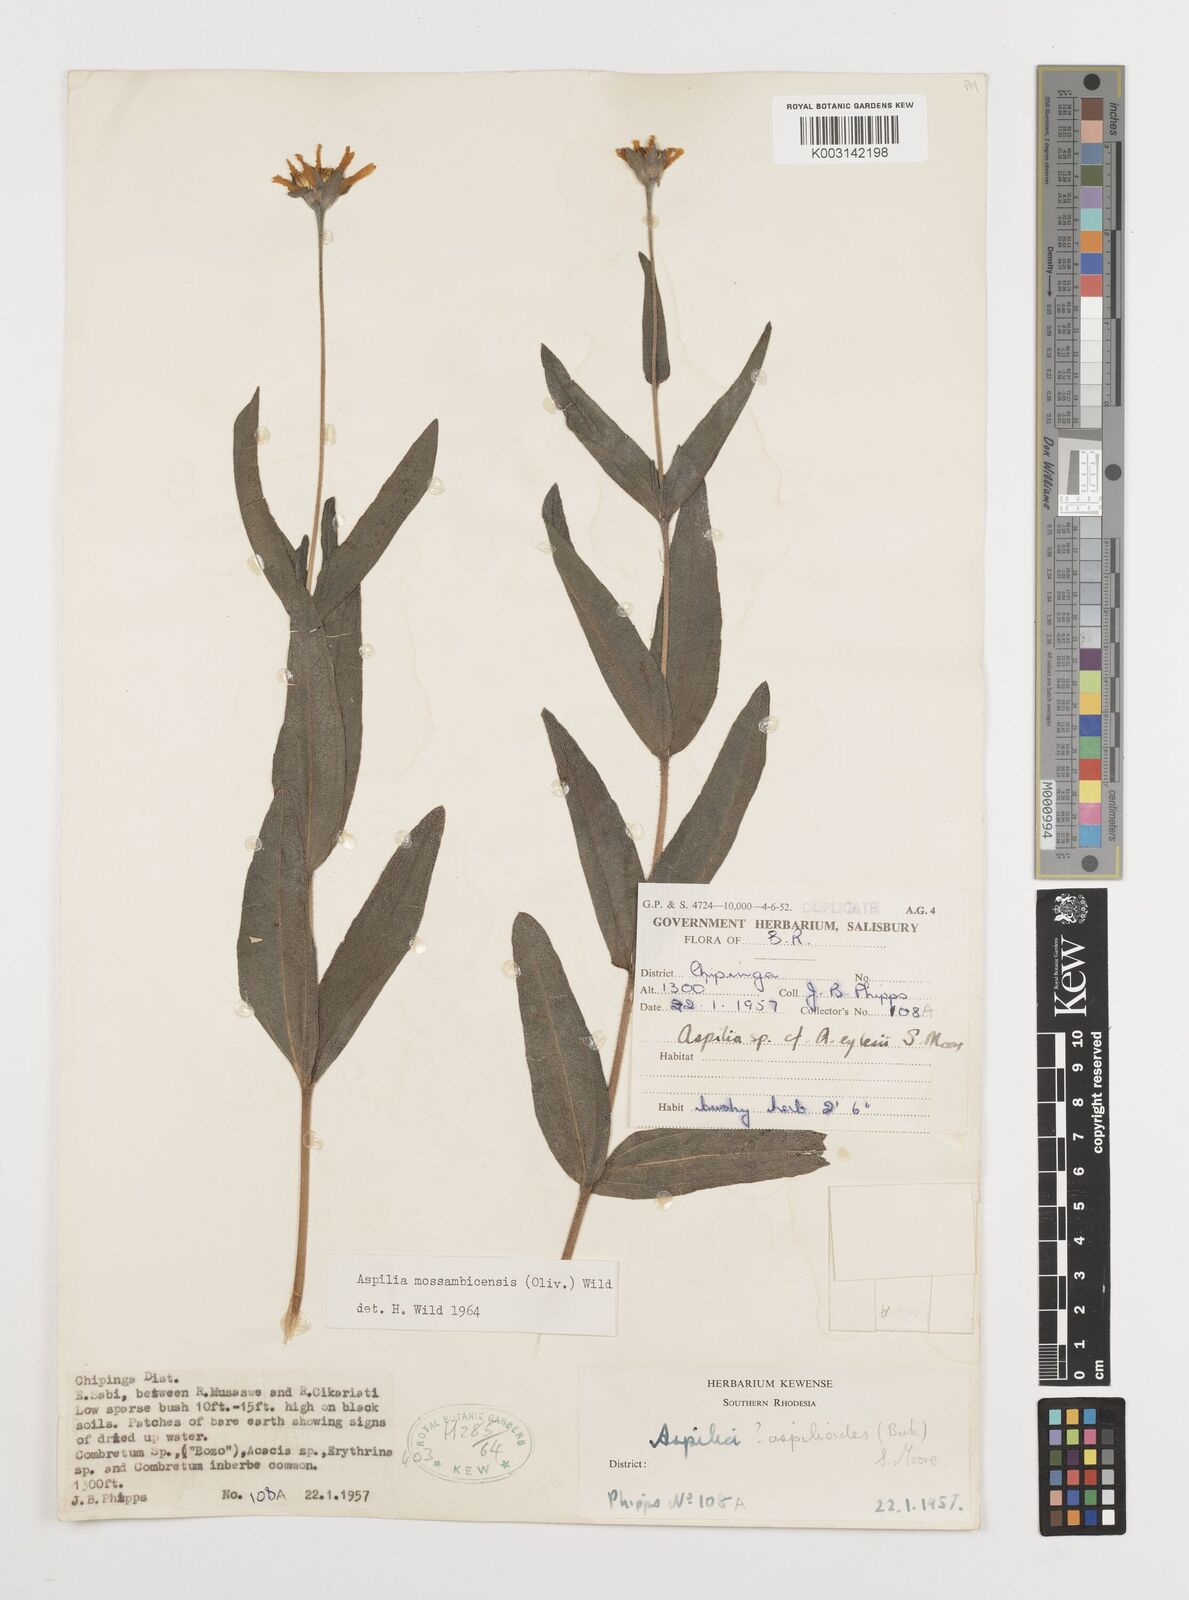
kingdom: Plantae
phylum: Tracheophyta
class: Magnoliopsida
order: Asterales
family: Asteraceae
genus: Aspilia
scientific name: Aspilia mossambicensis
